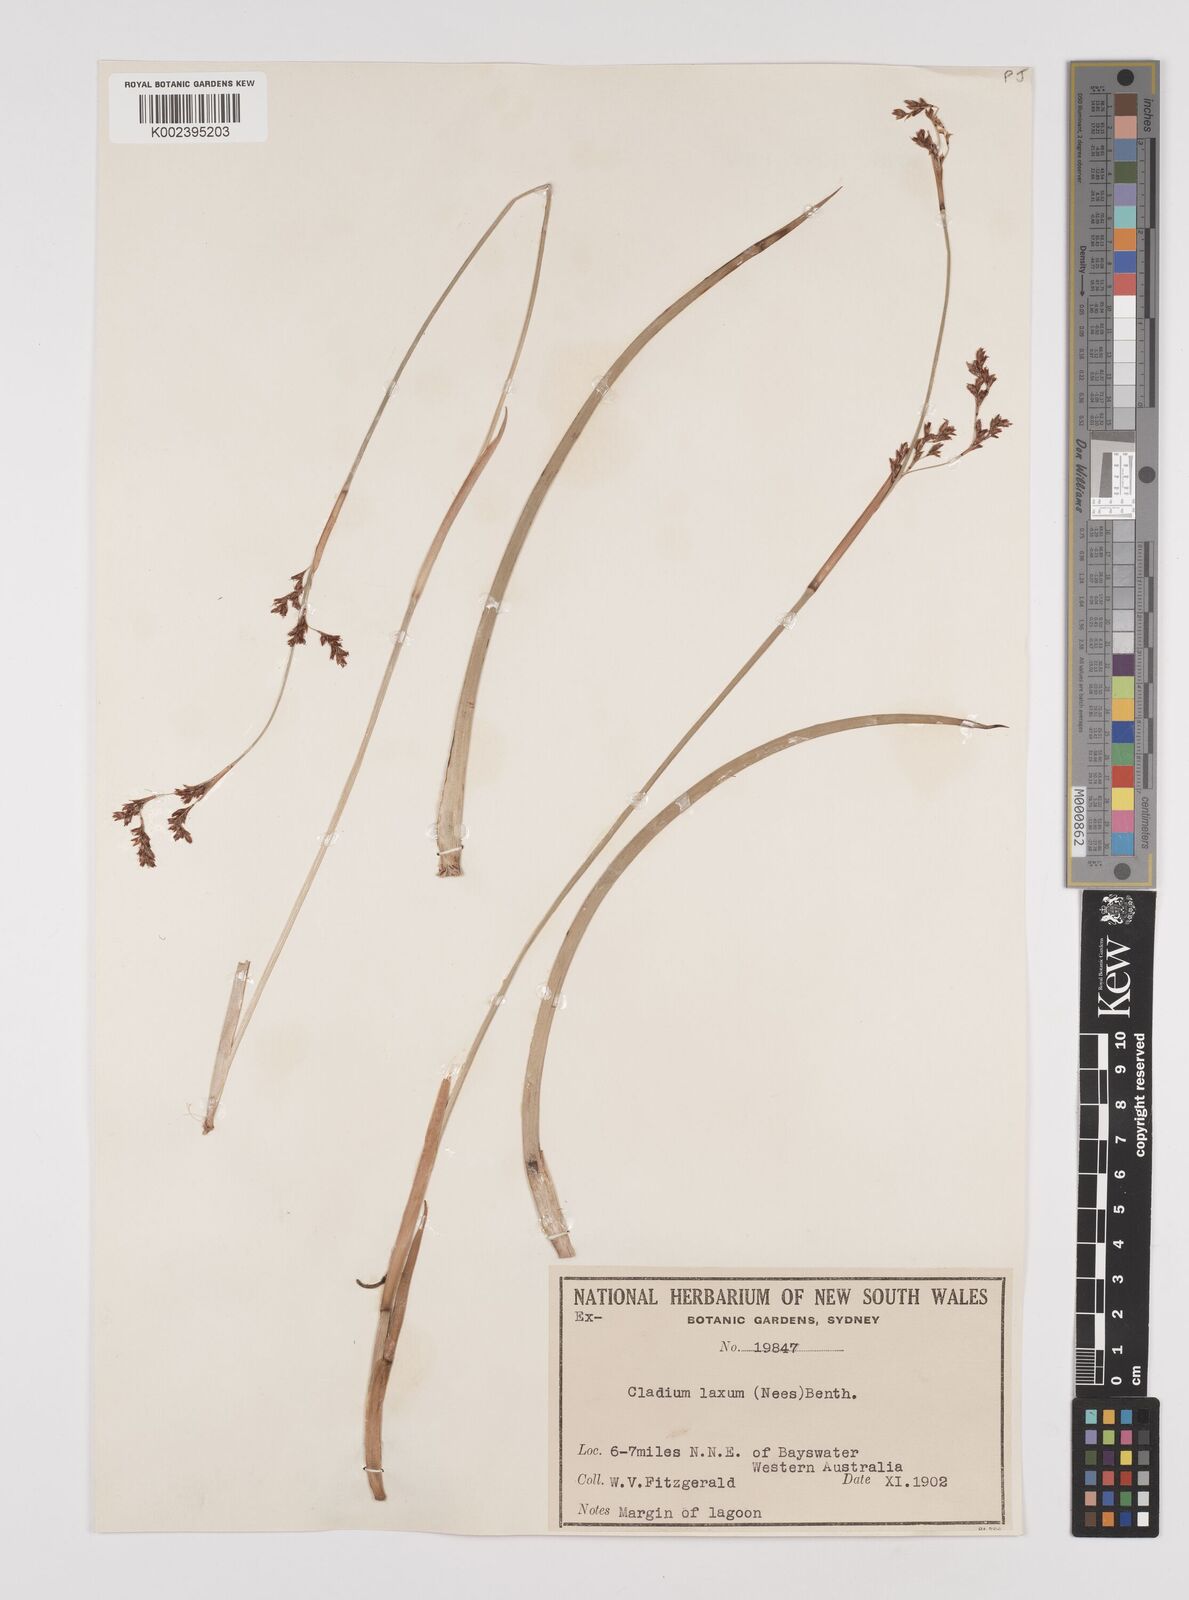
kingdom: Plantae
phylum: Tracheophyta
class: Liliopsida
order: Poales
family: Cyperaceae
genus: Machaerina
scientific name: Machaerina laxa
